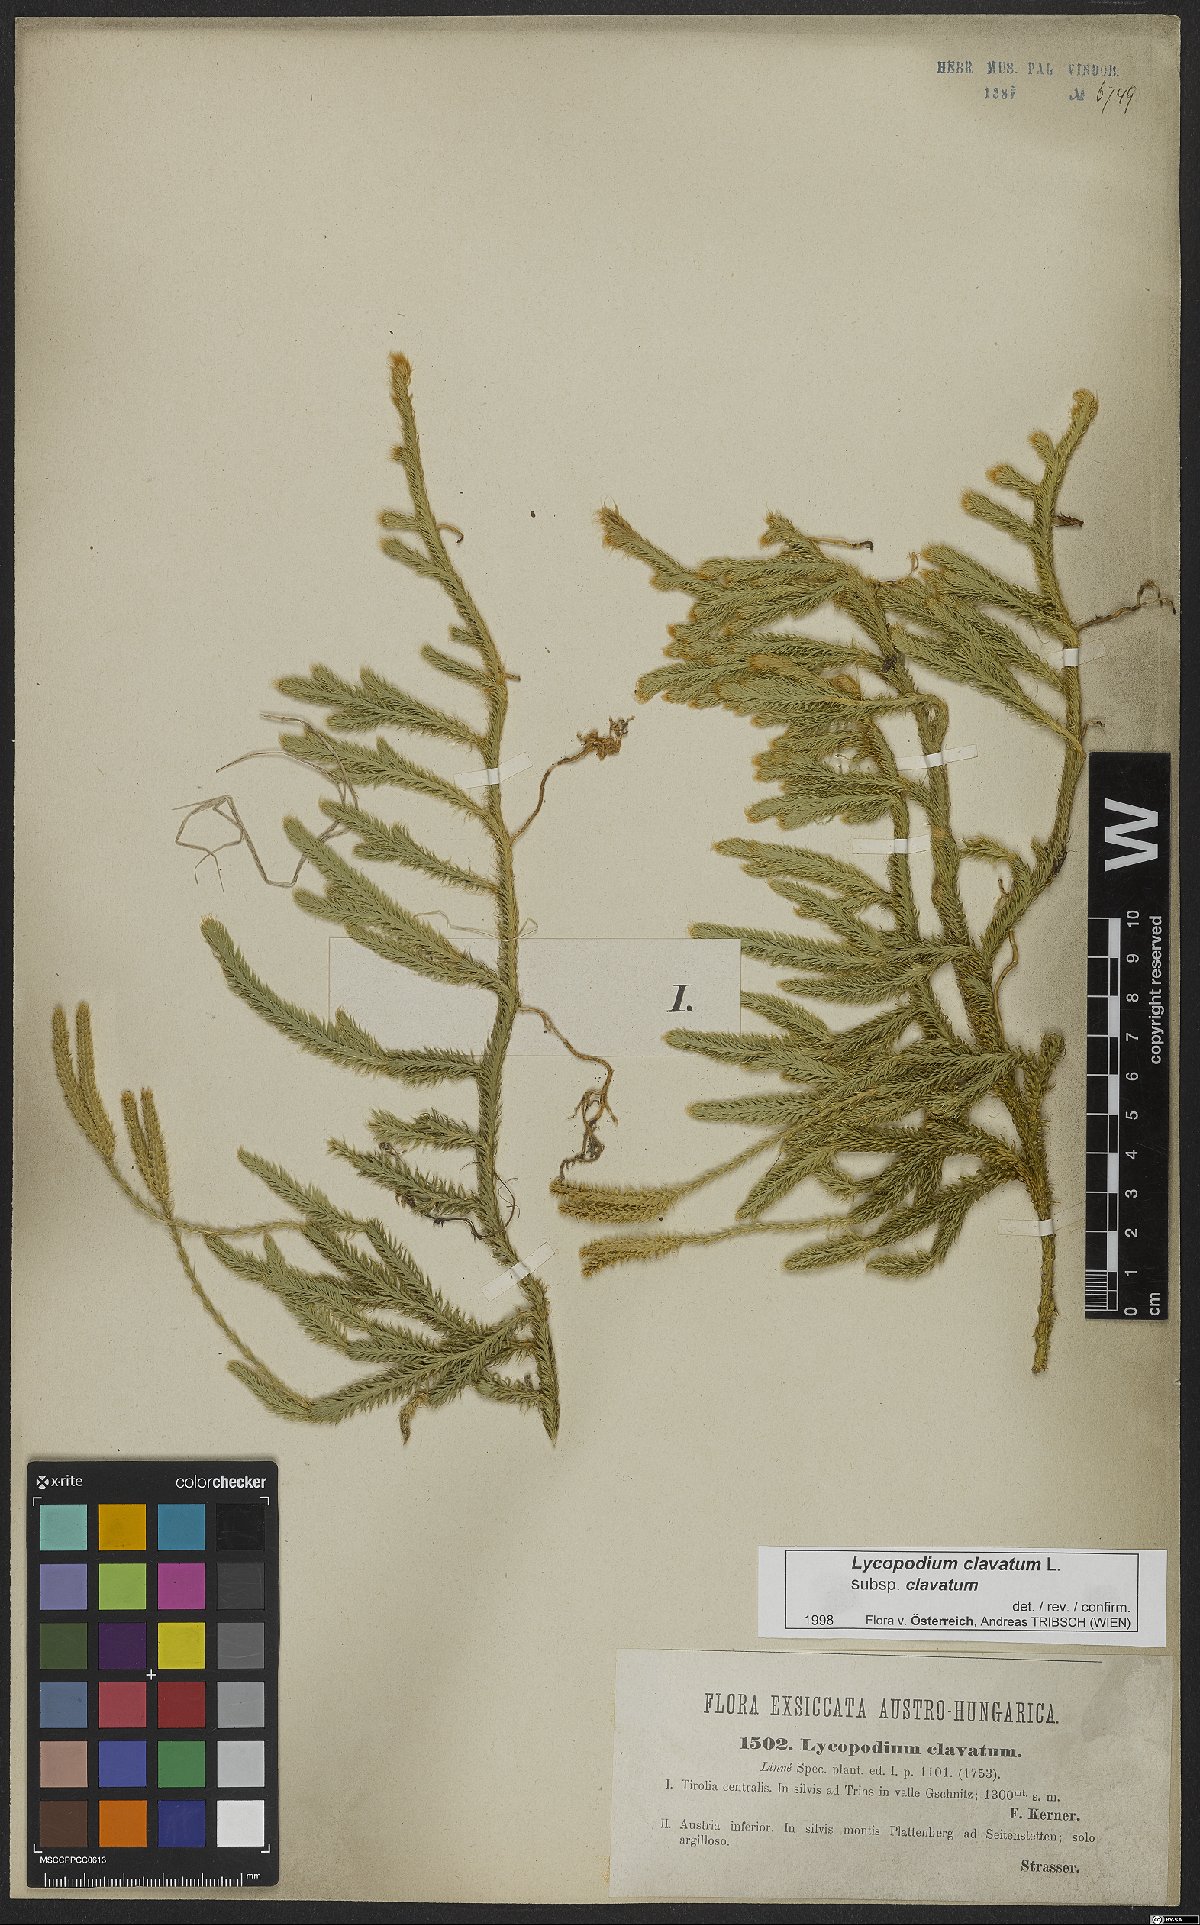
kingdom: Plantae
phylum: Tracheophyta
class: Lycopodiopsida
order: Lycopodiales
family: Lycopodiaceae
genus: Lycopodium
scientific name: Lycopodium clavatum
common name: Stag's-horn clubmoss
